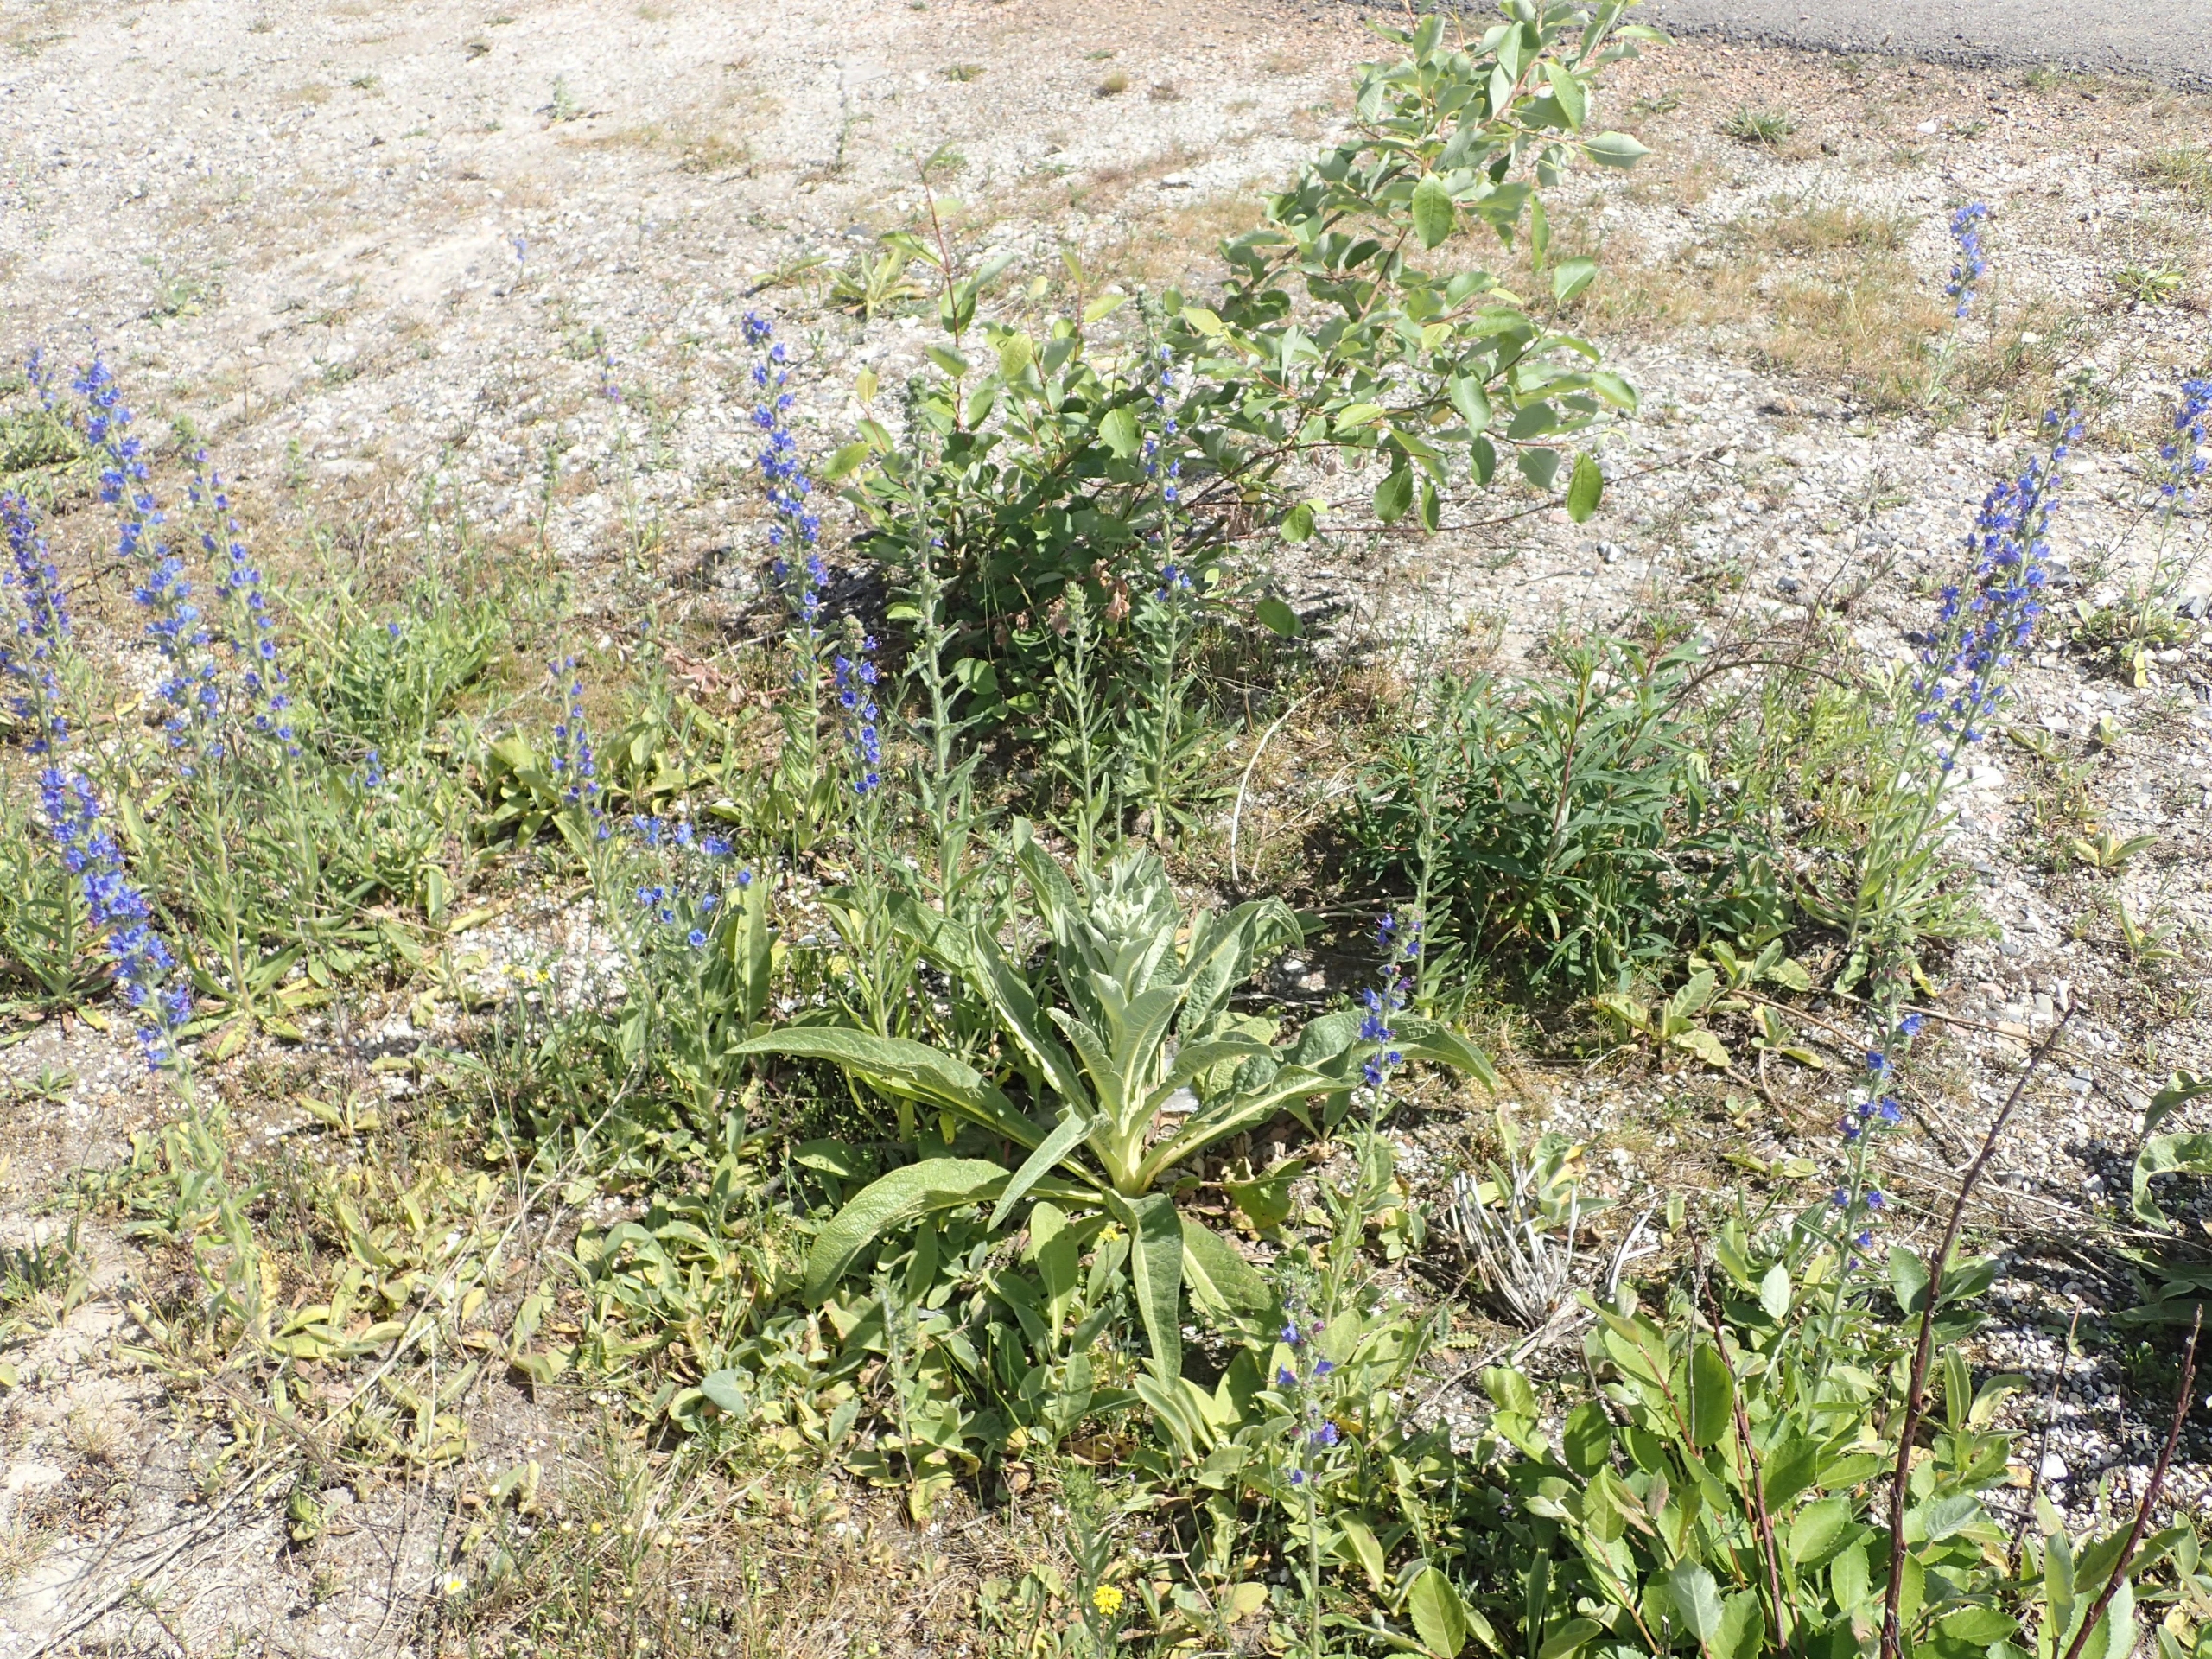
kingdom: Plantae
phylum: Tracheophyta
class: Magnoliopsida
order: Lamiales
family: Scrophulariaceae
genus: Verbascum
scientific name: Verbascum speciosum
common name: Kandelaber-kongelys
